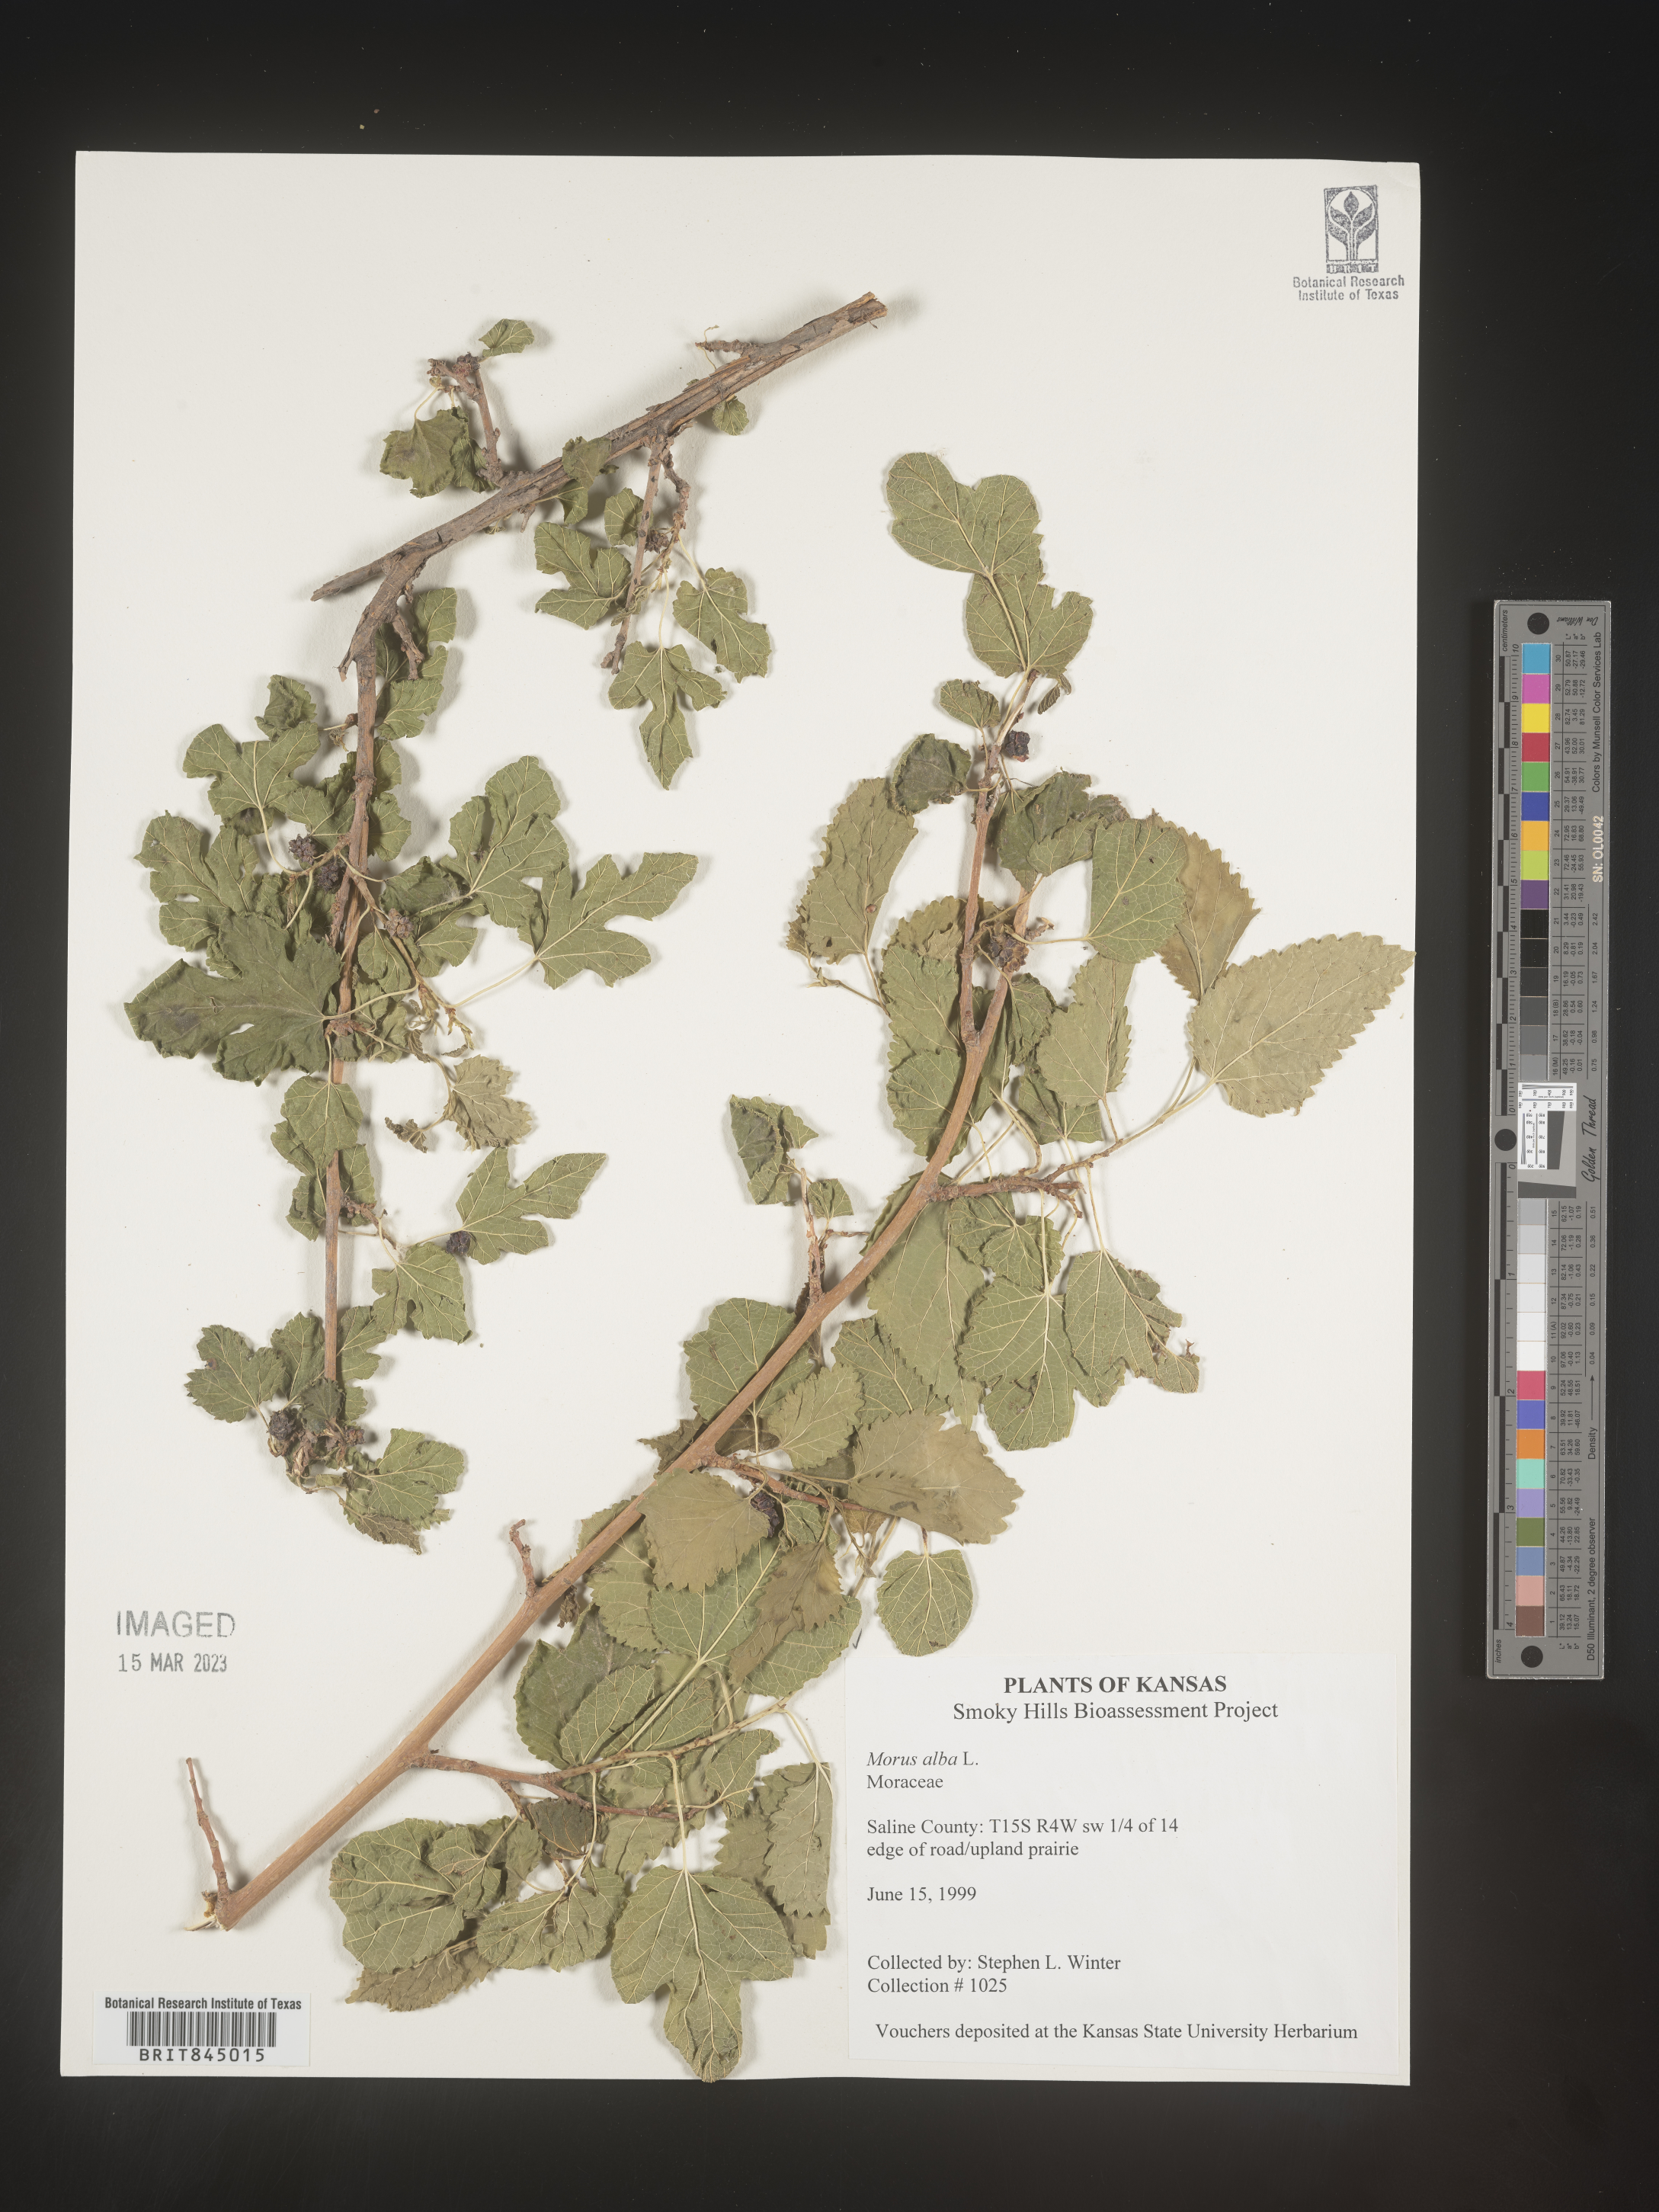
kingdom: Plantae
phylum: Tracheophyta
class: Magnoliopsida
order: Rosales
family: Moraceae
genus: Morus
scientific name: Morus alba
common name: White mulberry
